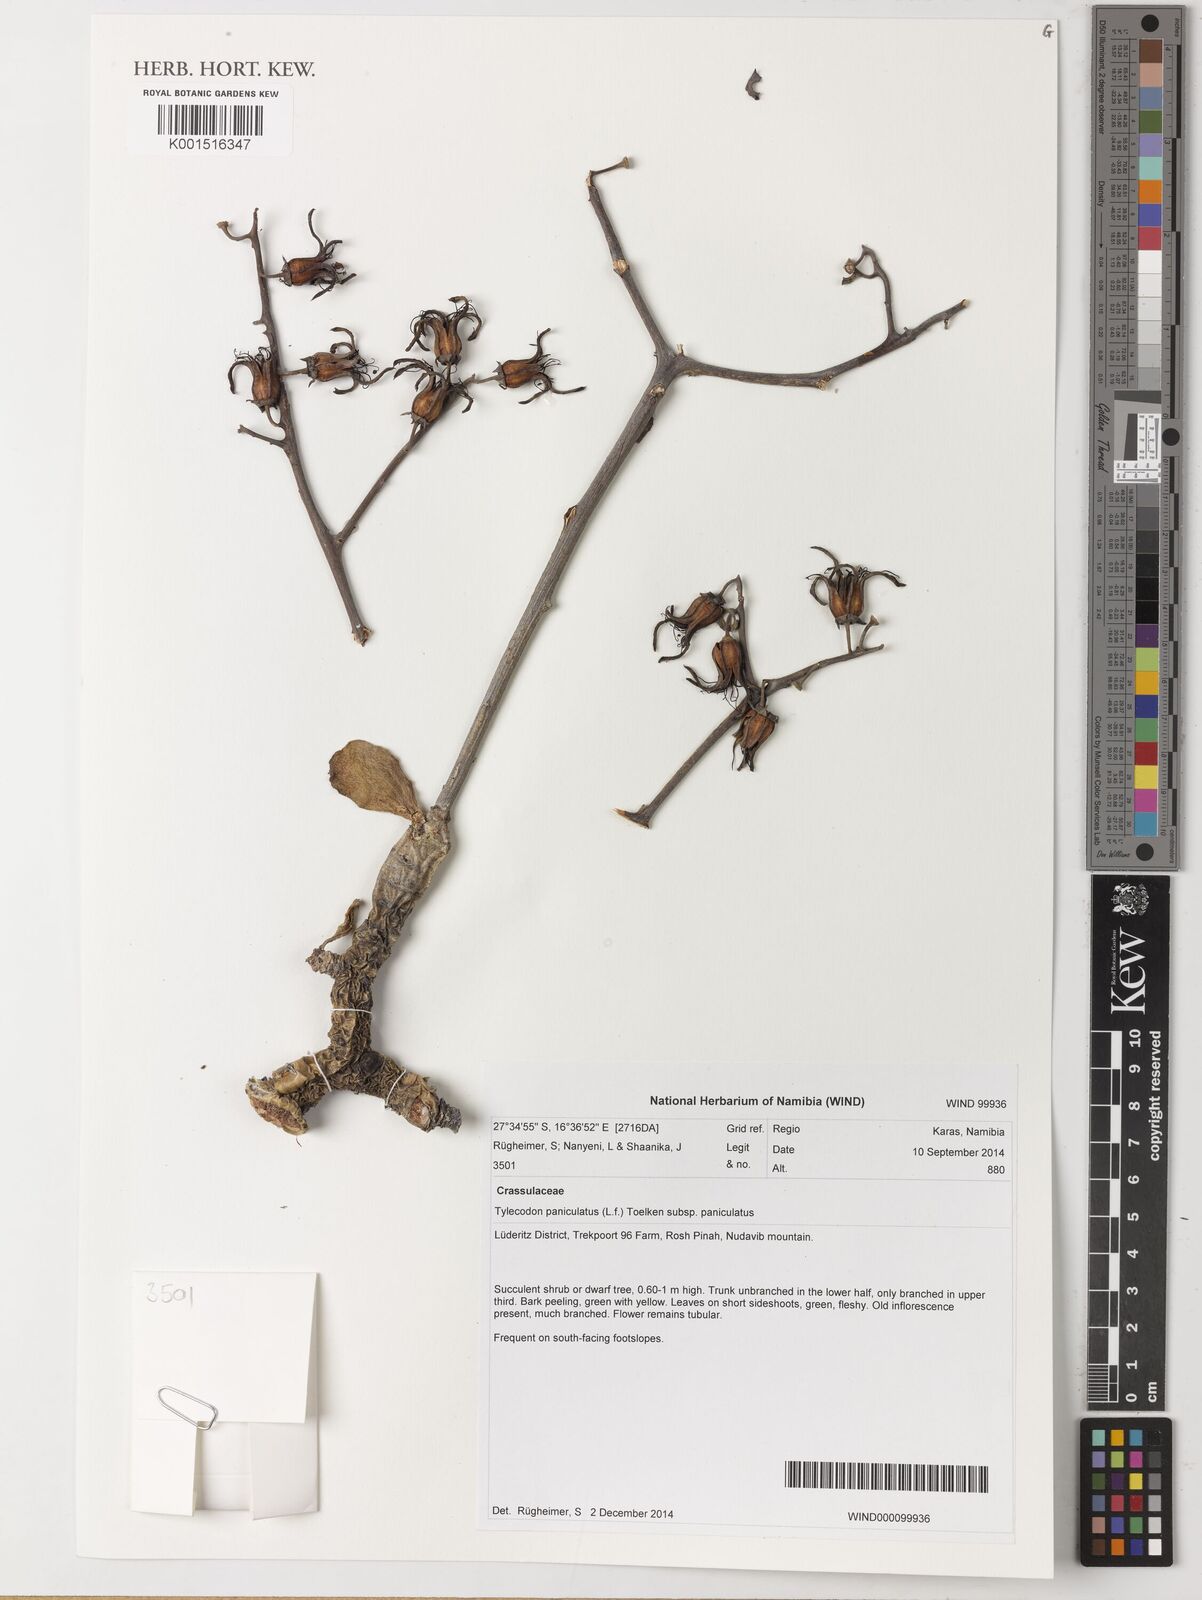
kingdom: Plantae
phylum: Tracheophyta
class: Magnoliopsida
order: Saxifragales
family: Crassulaceae
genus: Tylecodon
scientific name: Tylecodon paniculatus
